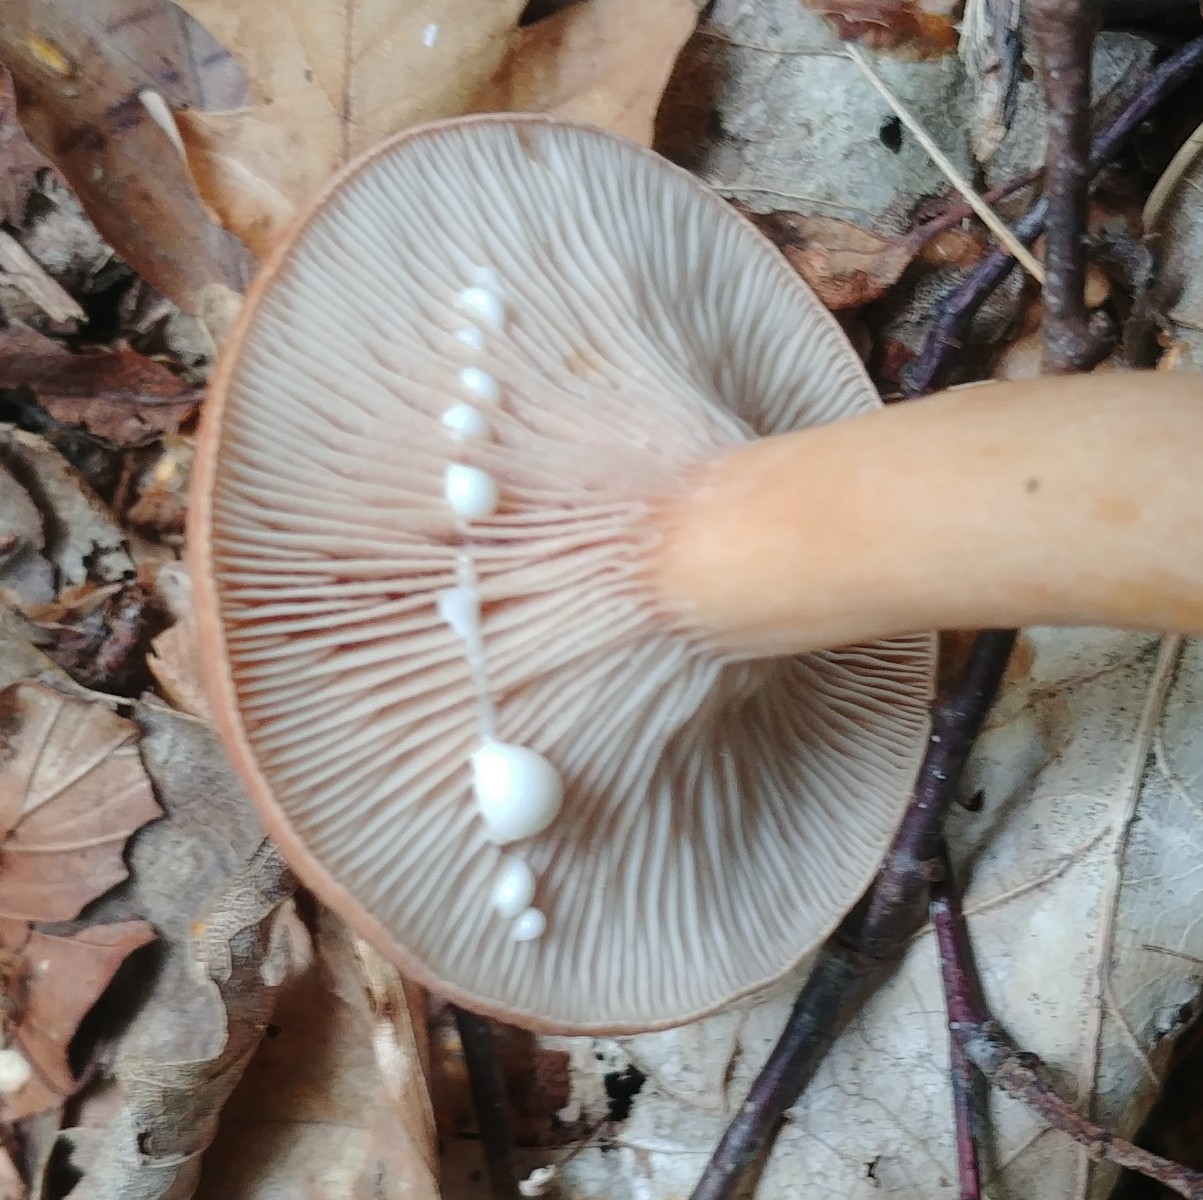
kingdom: Fungi
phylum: Basidiomycota
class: Agaricomycetes
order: Russulales
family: Russulaceae
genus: Lactarius
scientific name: Lactarius subdulcis
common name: sødlig mælkehat
